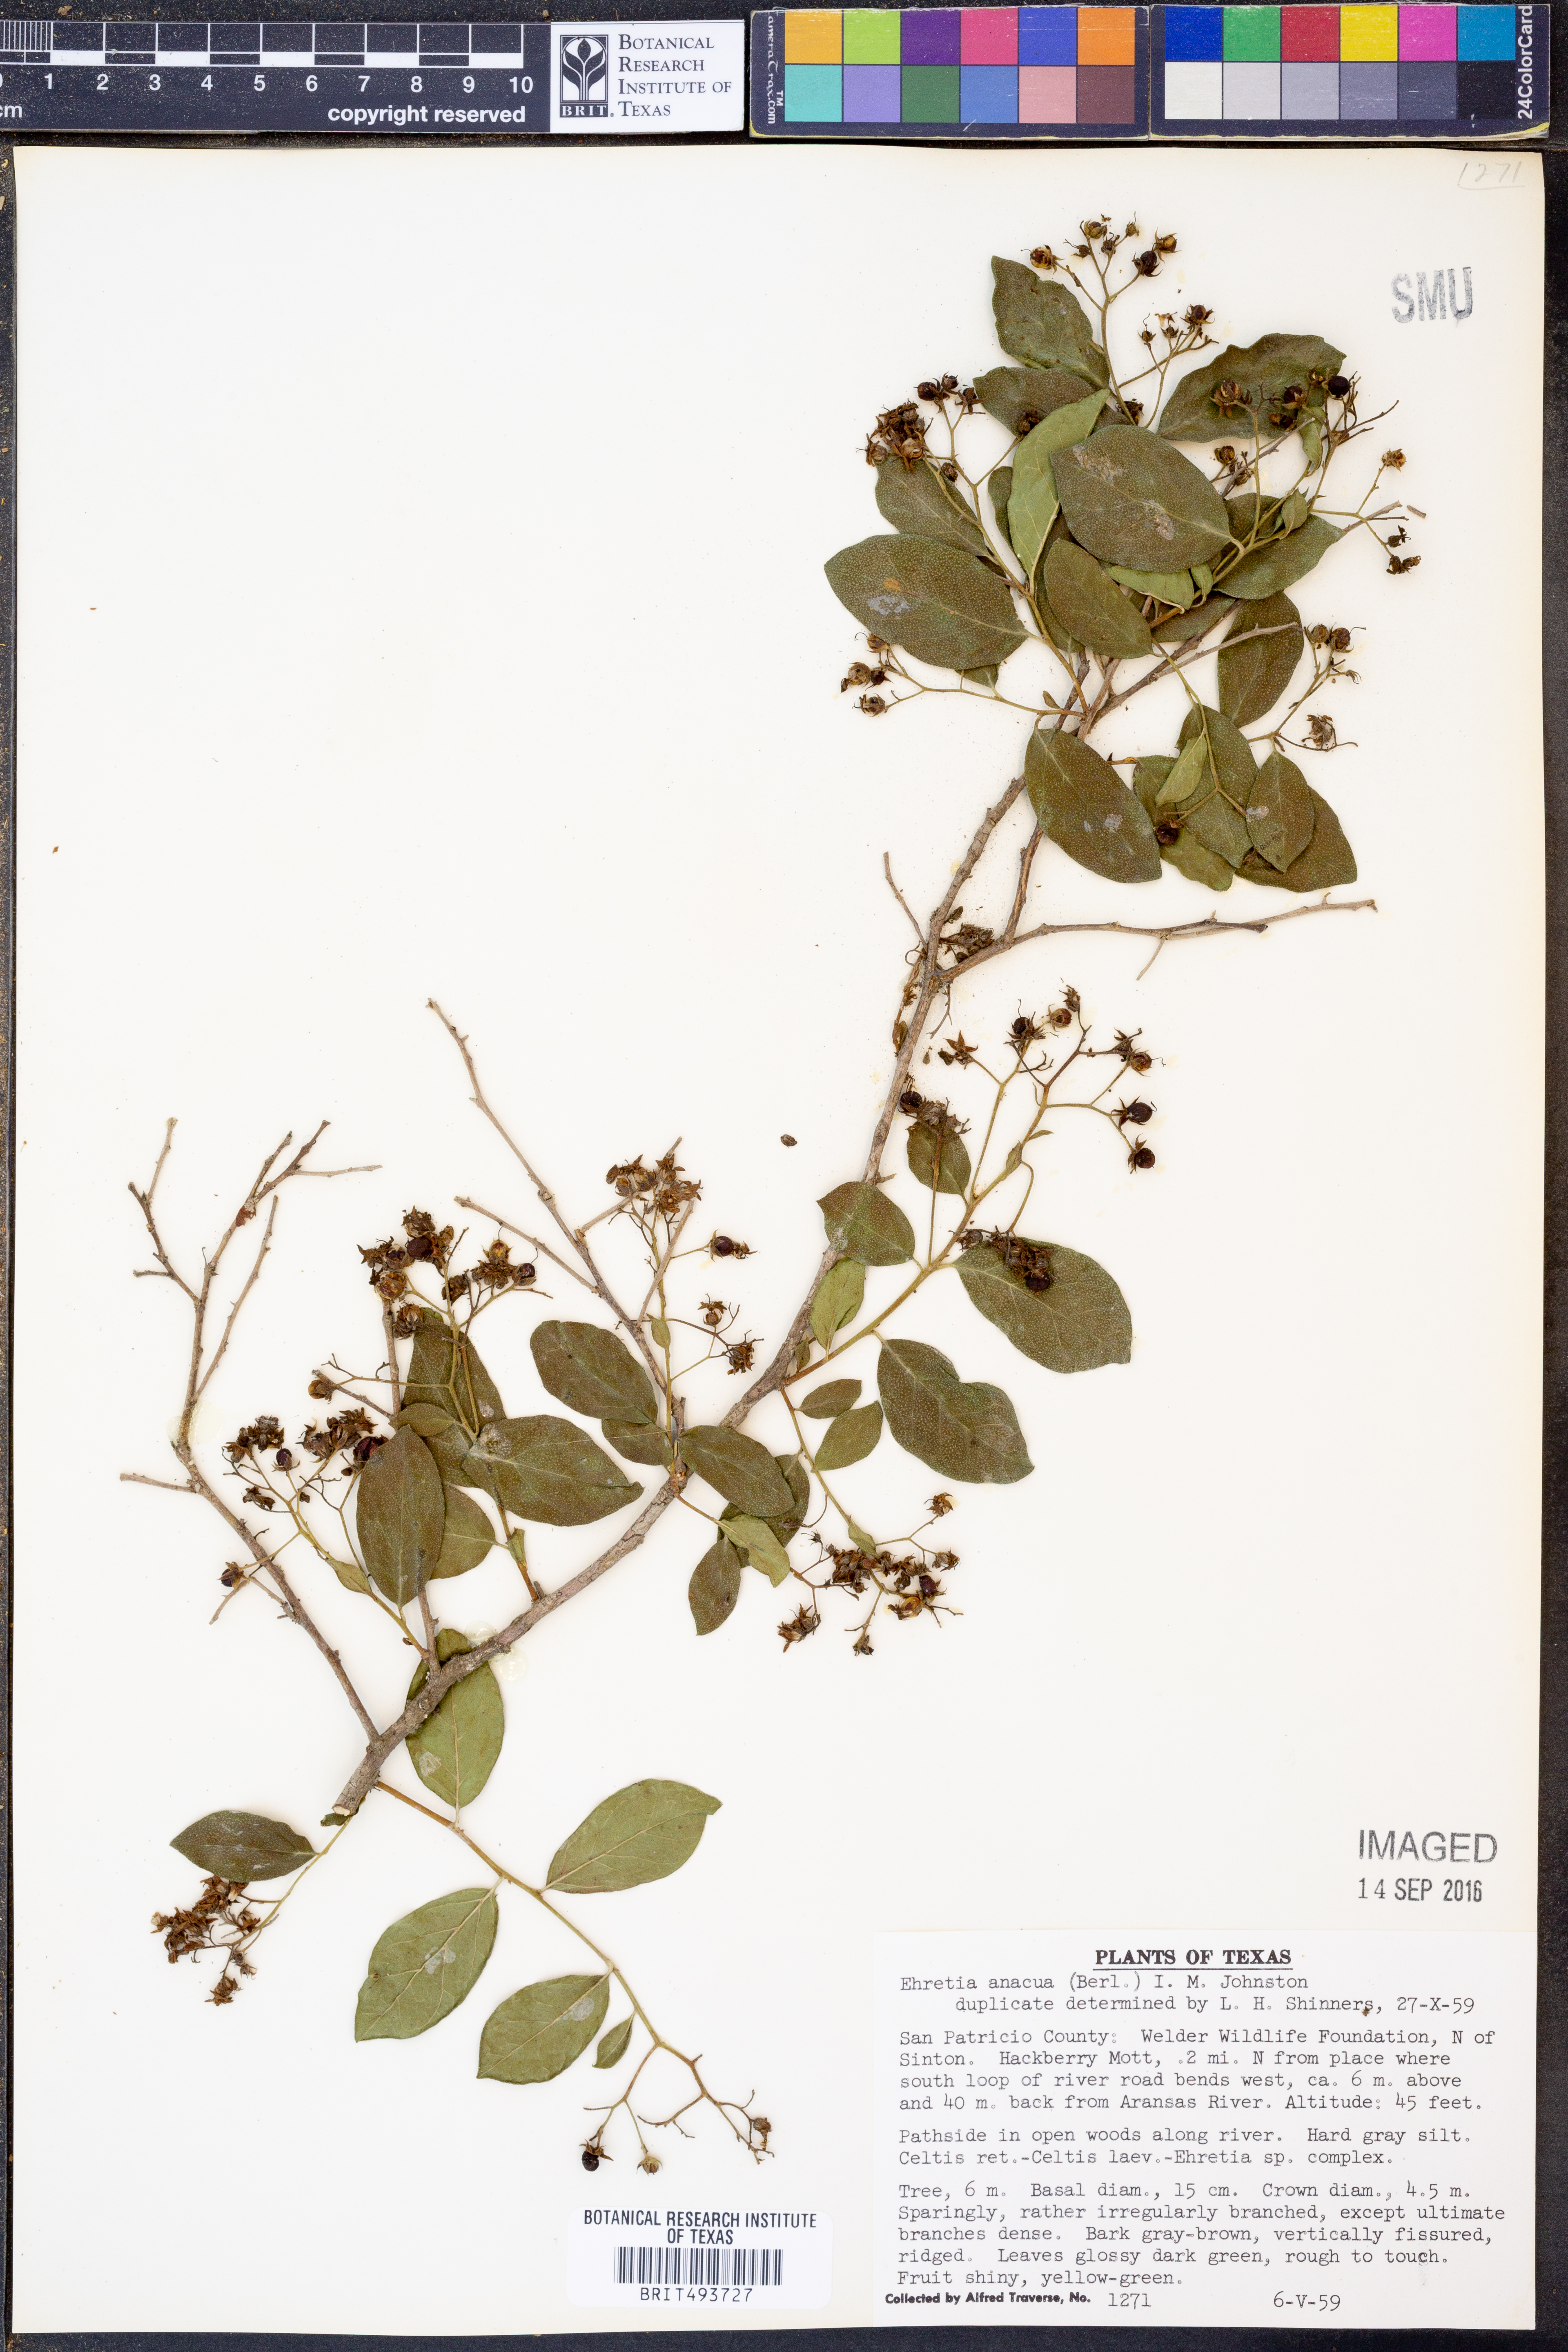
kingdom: Plantae
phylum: Tracheophyta
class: Magnoliopsida
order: Boraginales
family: Ehretiaceae
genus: Ehretia
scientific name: Ehretia anacua
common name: Sugarberry
